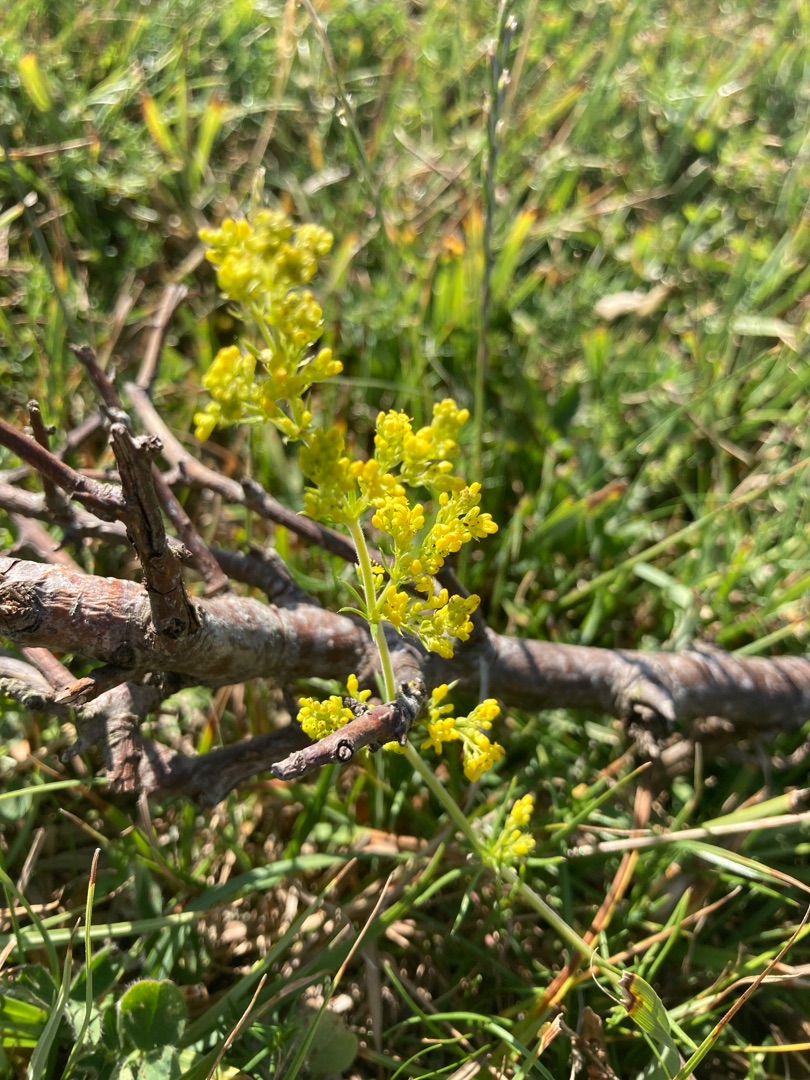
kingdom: Plantae
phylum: Tracheophyta
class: Magnoliopsida
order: Gentianales
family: Rubiaceae
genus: Galium
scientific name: Galium verum
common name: Gul snerre
